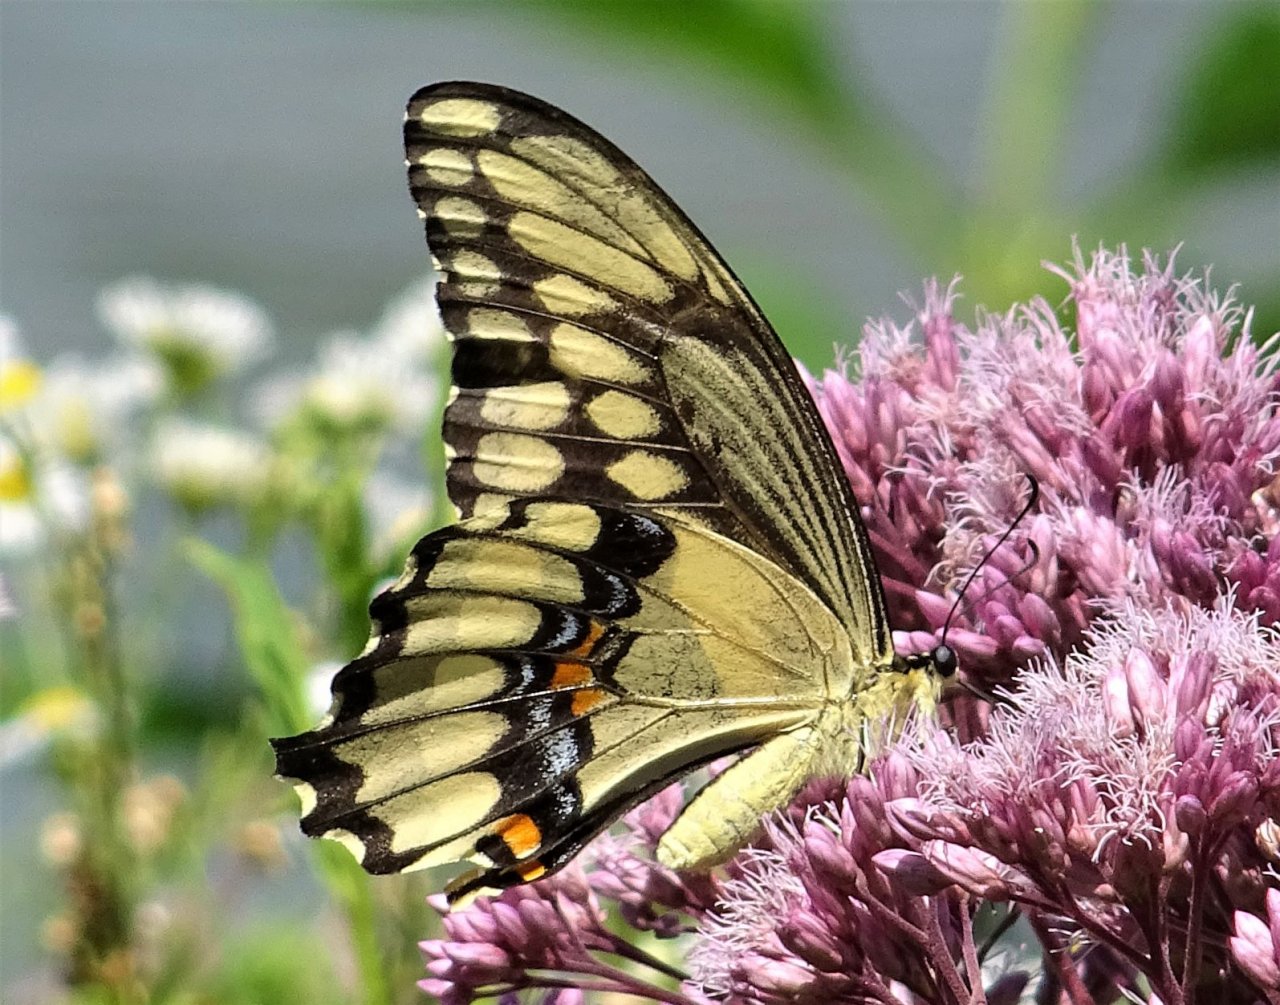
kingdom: Animalia
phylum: Arthropoda
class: Insecta
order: Lepidoptera
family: Papilionidae
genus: Papilio
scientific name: Papilio cresphontes
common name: Eastern Giant Swallowtail
